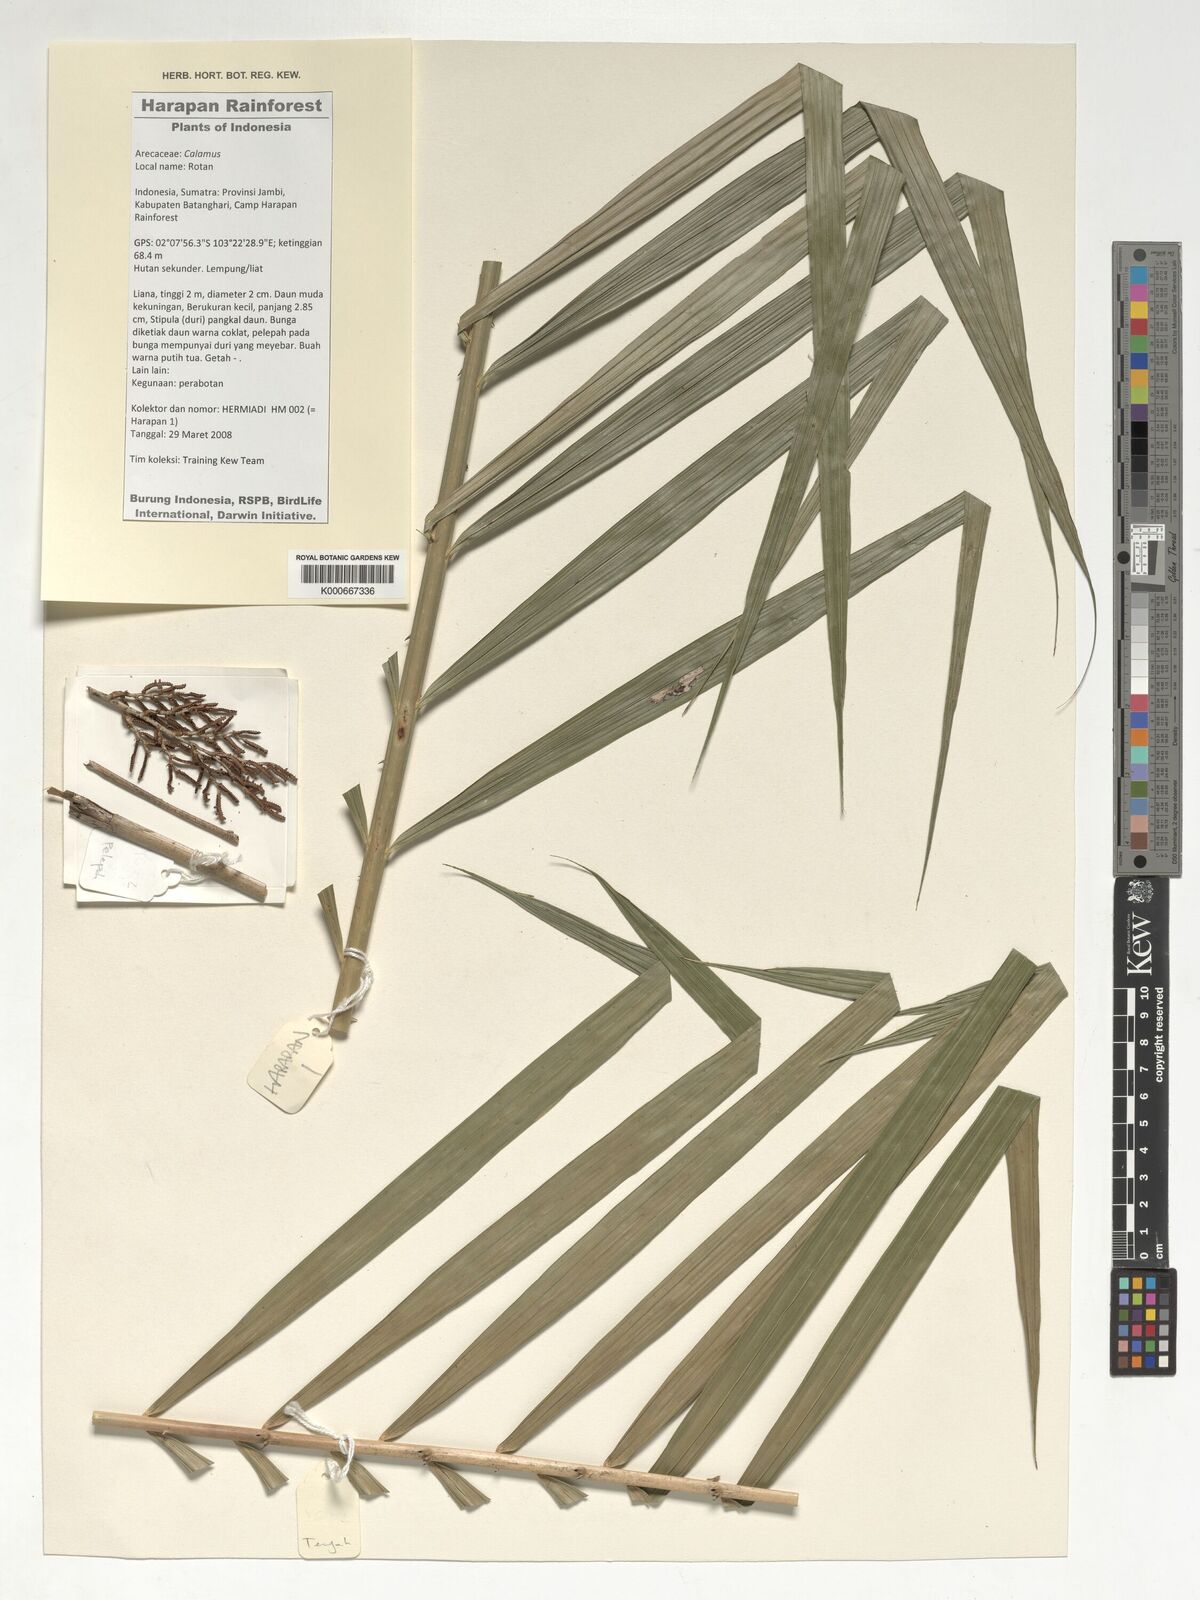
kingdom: Plantae
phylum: Tracheophyta
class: Liliopsida
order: Arecales
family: Arecaceae
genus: Calamus
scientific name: Calamus
